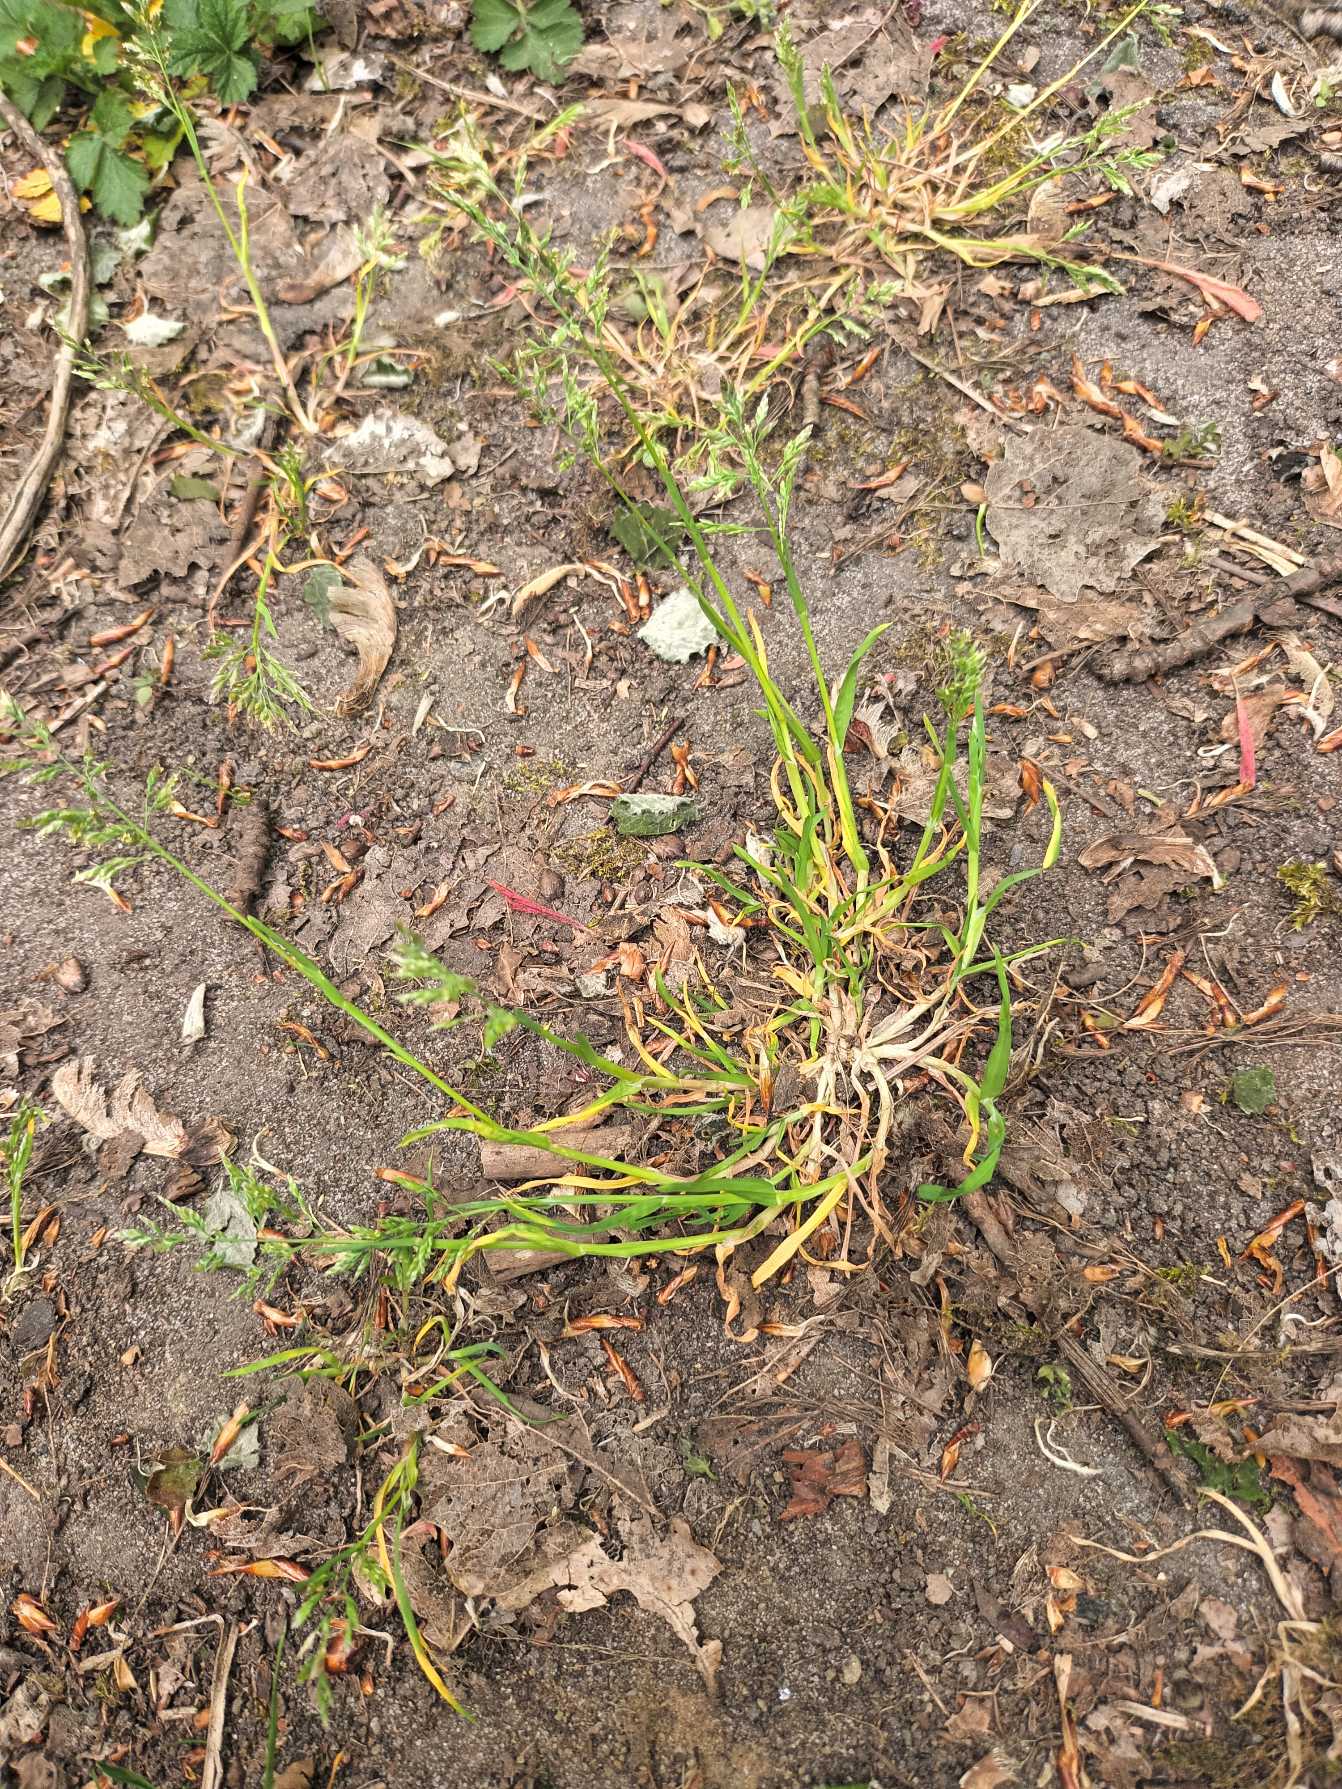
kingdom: Plantae
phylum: Tracheophyta
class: Liliopsida
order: Poales
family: Poaceae
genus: Poa
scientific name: Poa annua
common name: Enårig rapgræs
